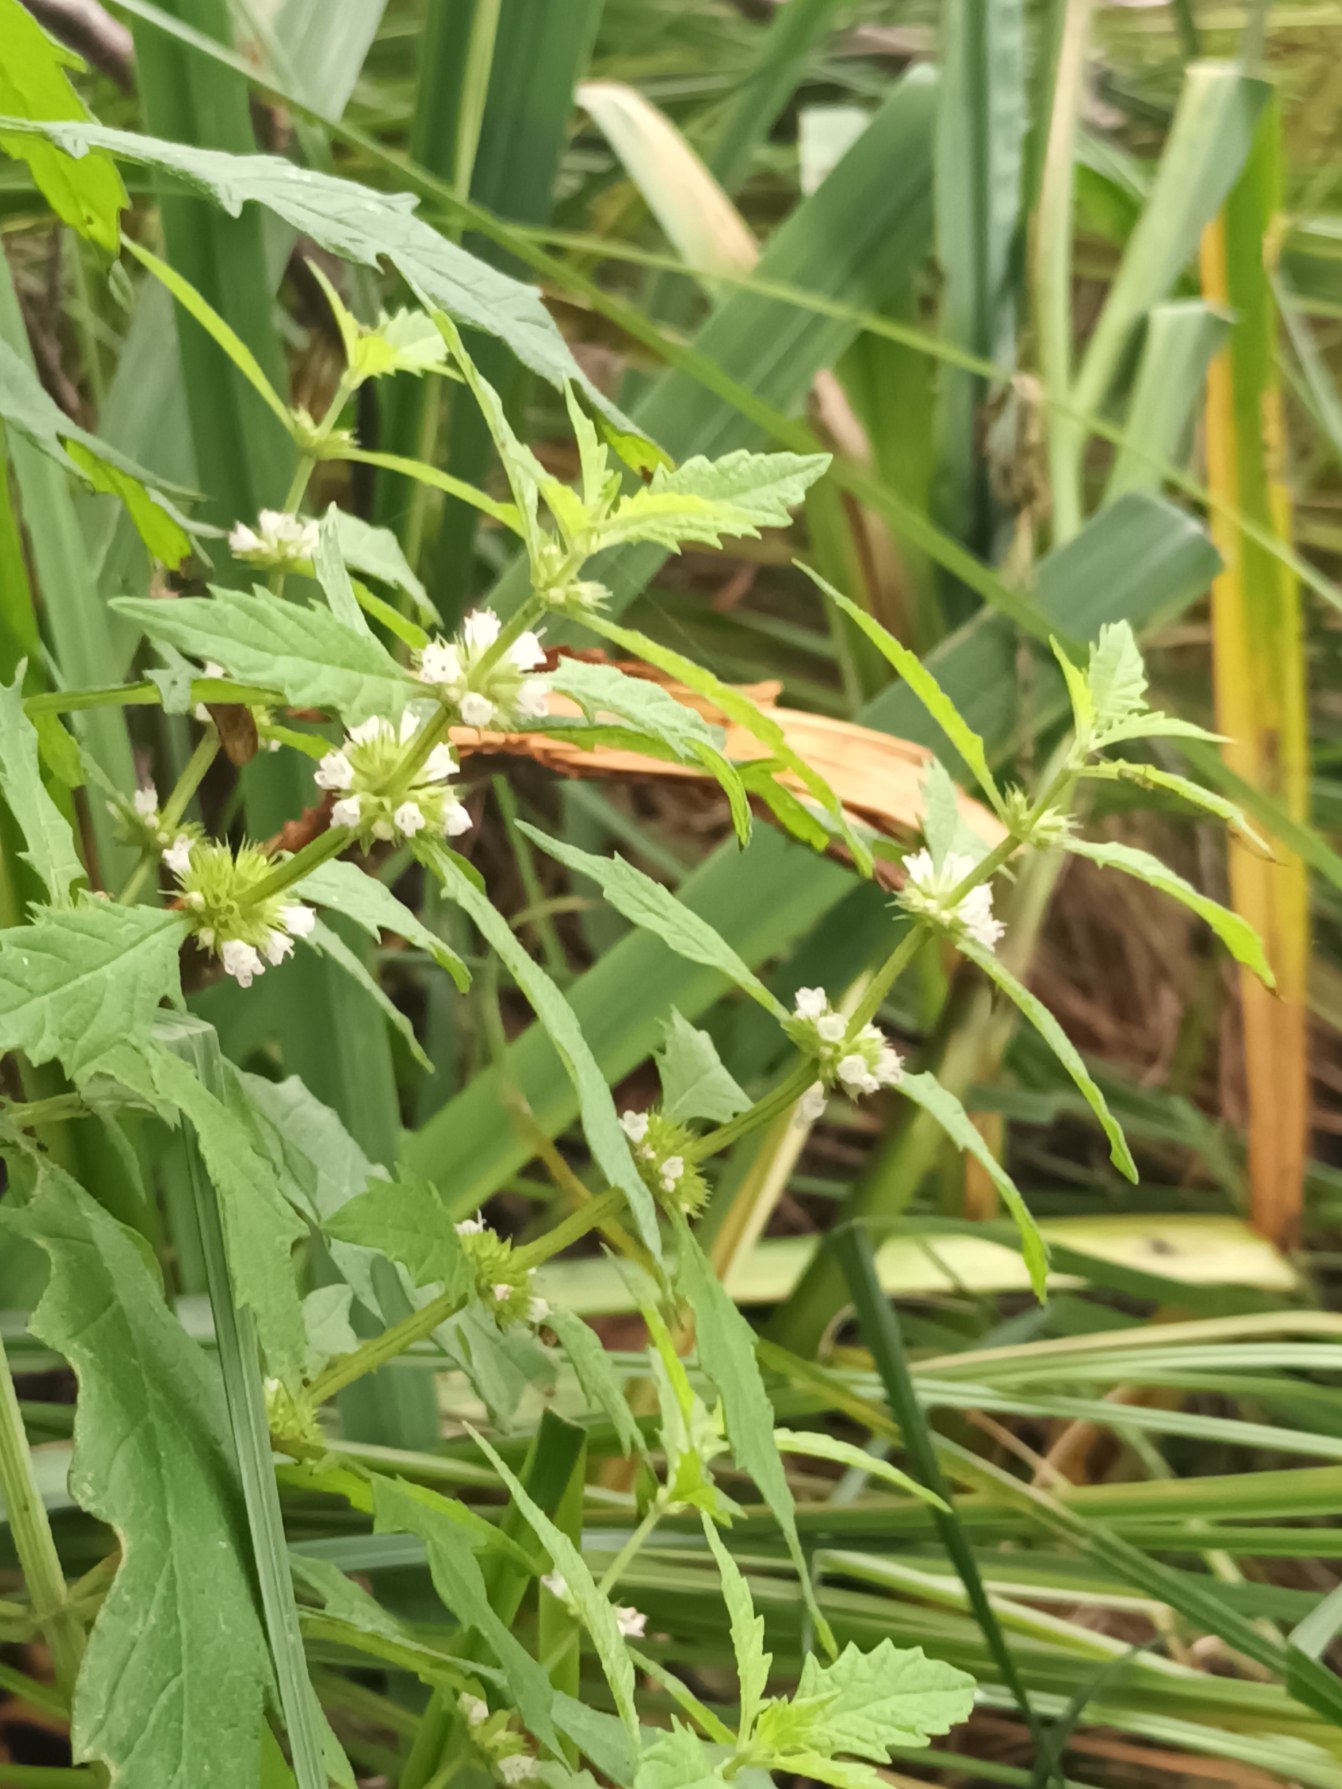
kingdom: Plantae
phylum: Tracheophyta
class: Magnoliopsida
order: Lamiales
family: Lamiaceae
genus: Lycopus
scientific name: Lycopus europaeus
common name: Sværtevæld
